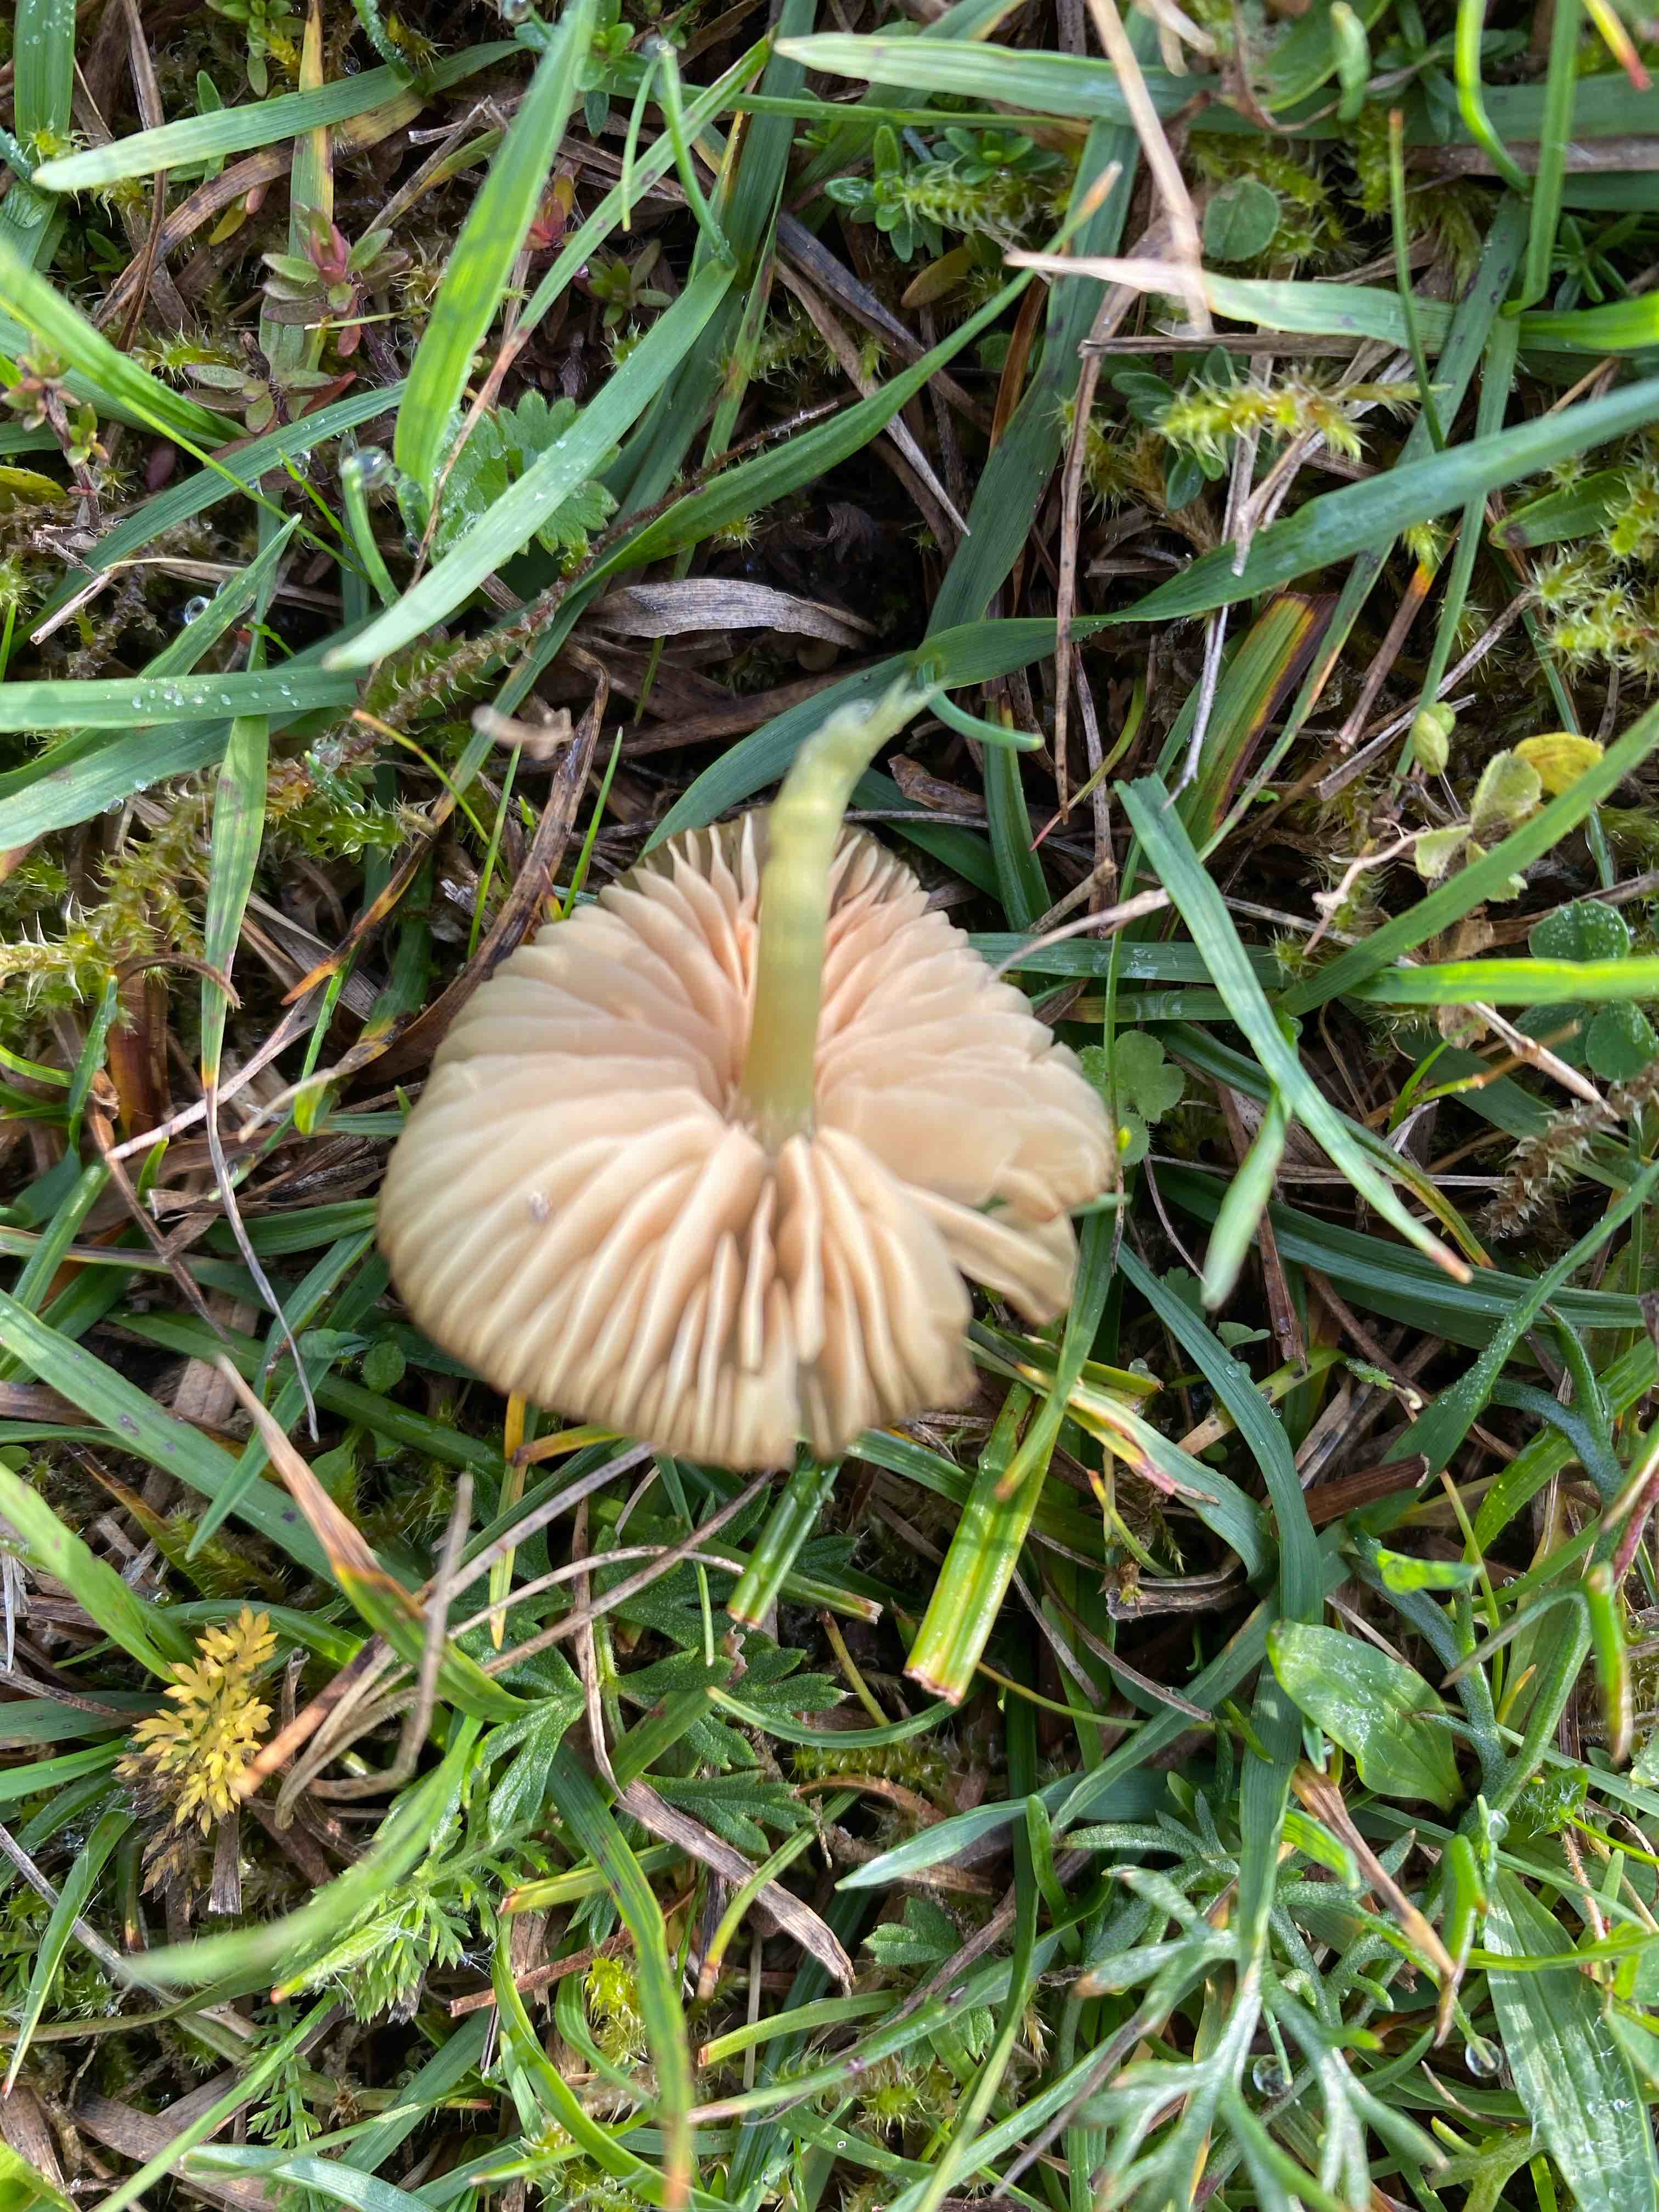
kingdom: Fungi
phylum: Basidiomycota
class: Agaricomycetes
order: Agaricales
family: Entolomataceae
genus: Entoloma
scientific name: Entoloma incanum
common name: grøngul rødblad
